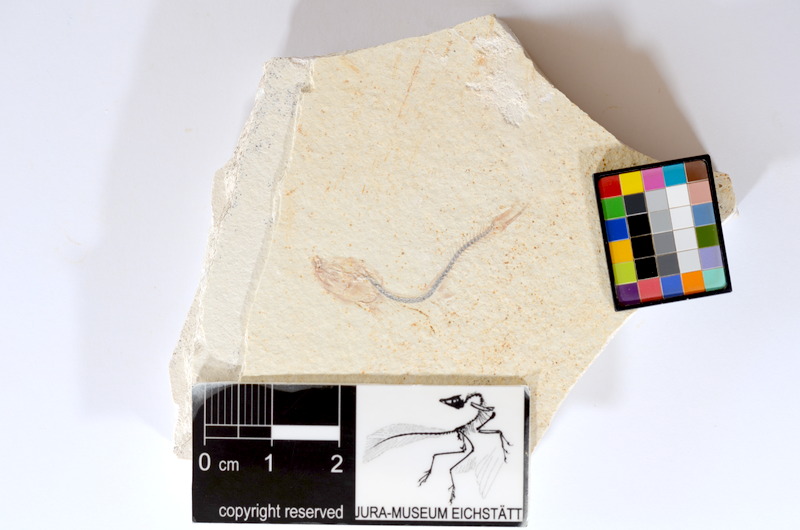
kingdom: Animalia
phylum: Chordata
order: Salmoniformes
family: Orthogonikleithridae
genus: Orthogonikleithrus
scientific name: Orthogonikleithrus hoelli
